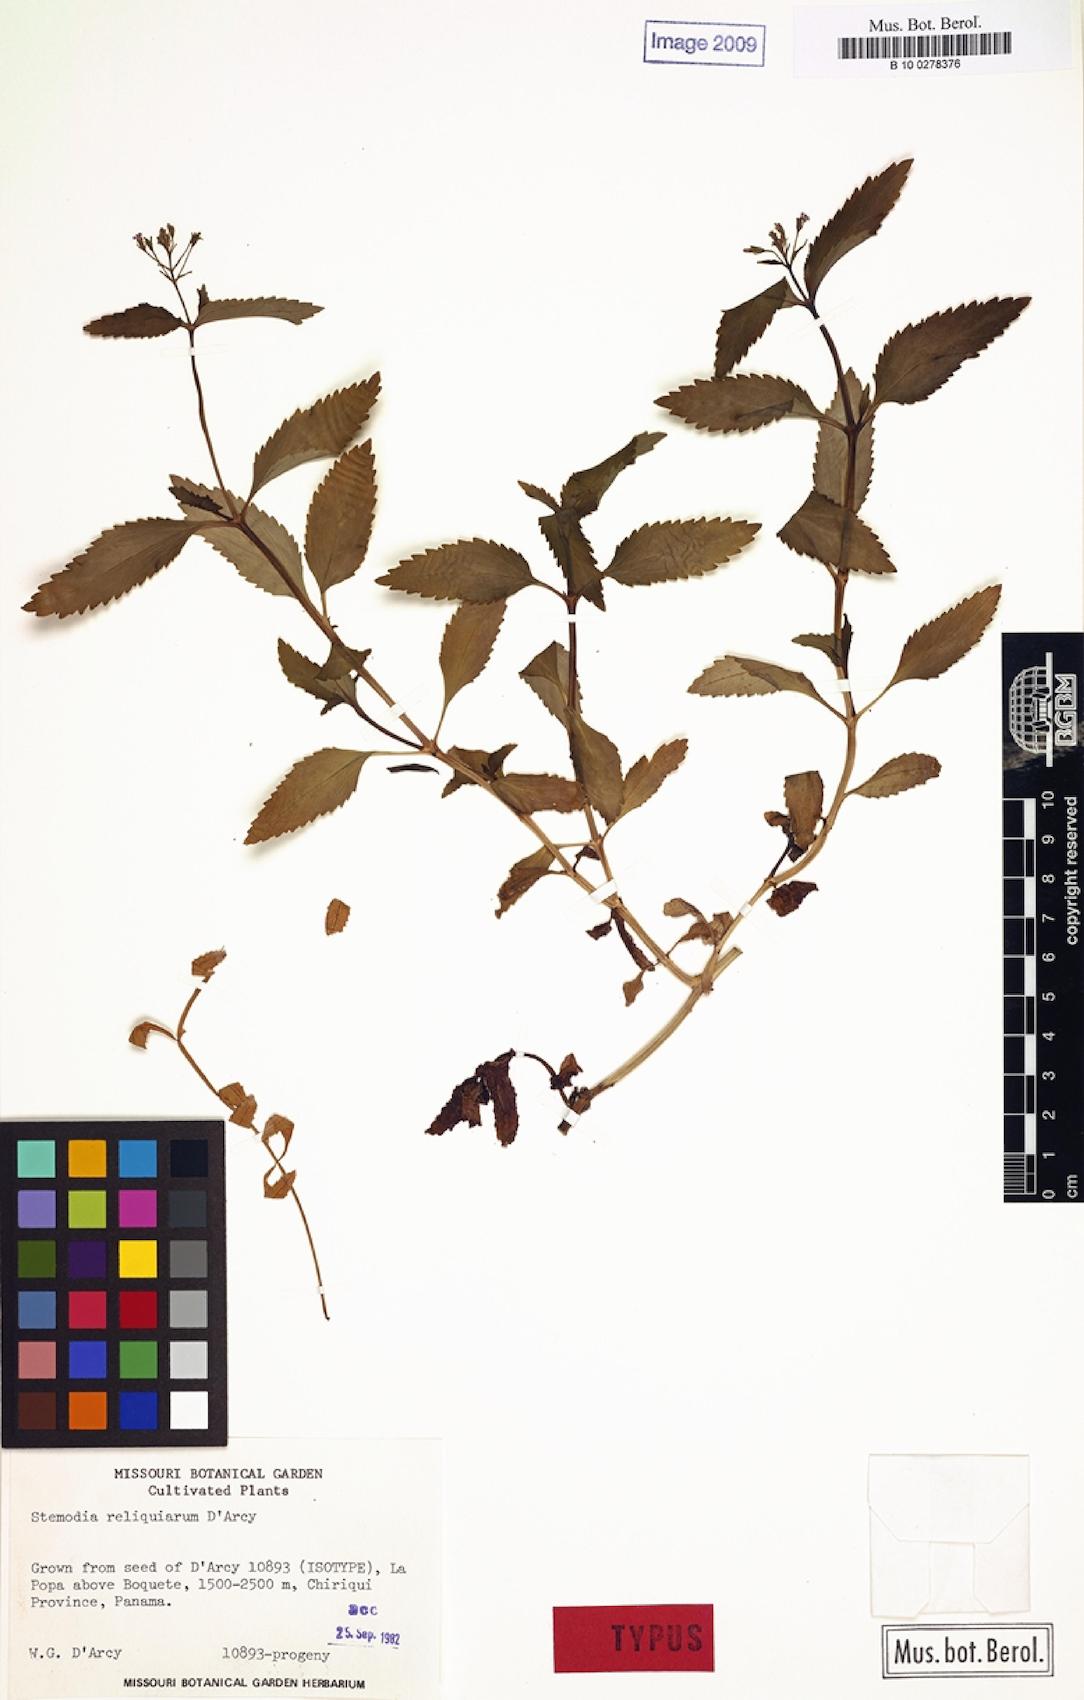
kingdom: Plantae
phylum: Tracheophyta
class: Magnoliopsida
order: Lamiales
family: Plantaginaceae
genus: Stemodia
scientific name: Stemodia
